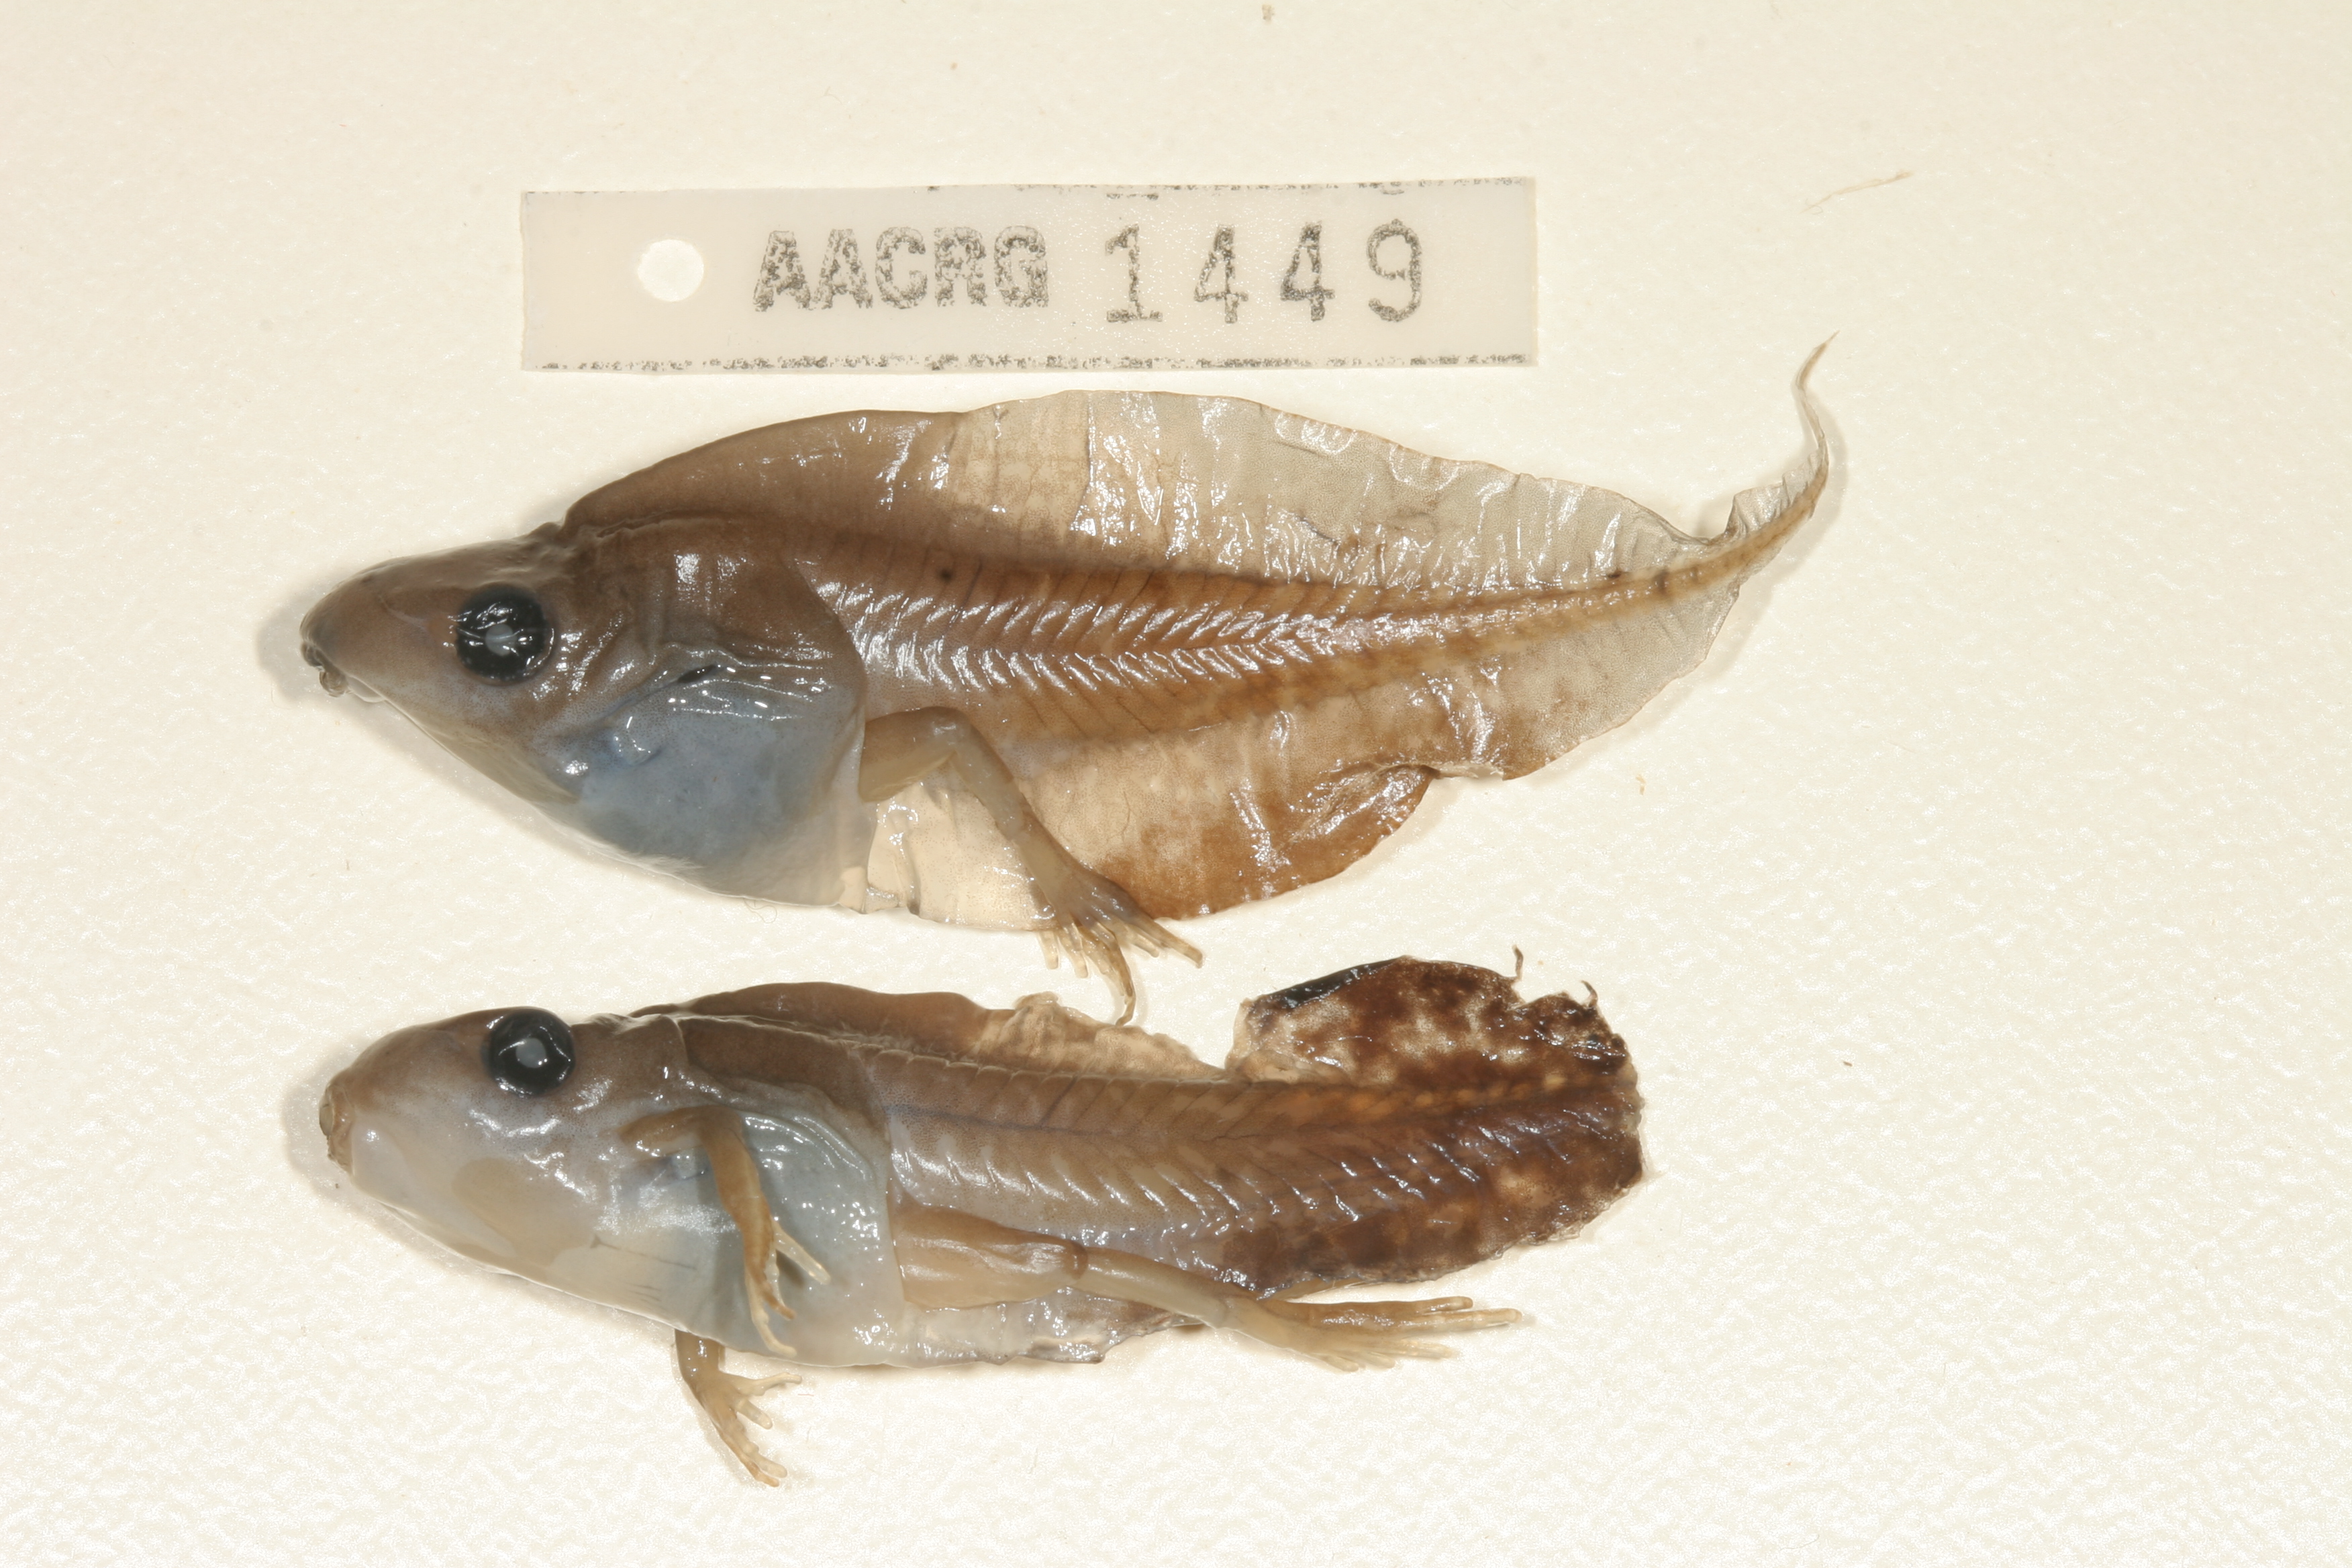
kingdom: Animalia
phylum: Chordata
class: Amphibia
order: Anura
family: Hyperoliidae
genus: Kassina
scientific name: Kassina senegalensis
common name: Senegal land frog
